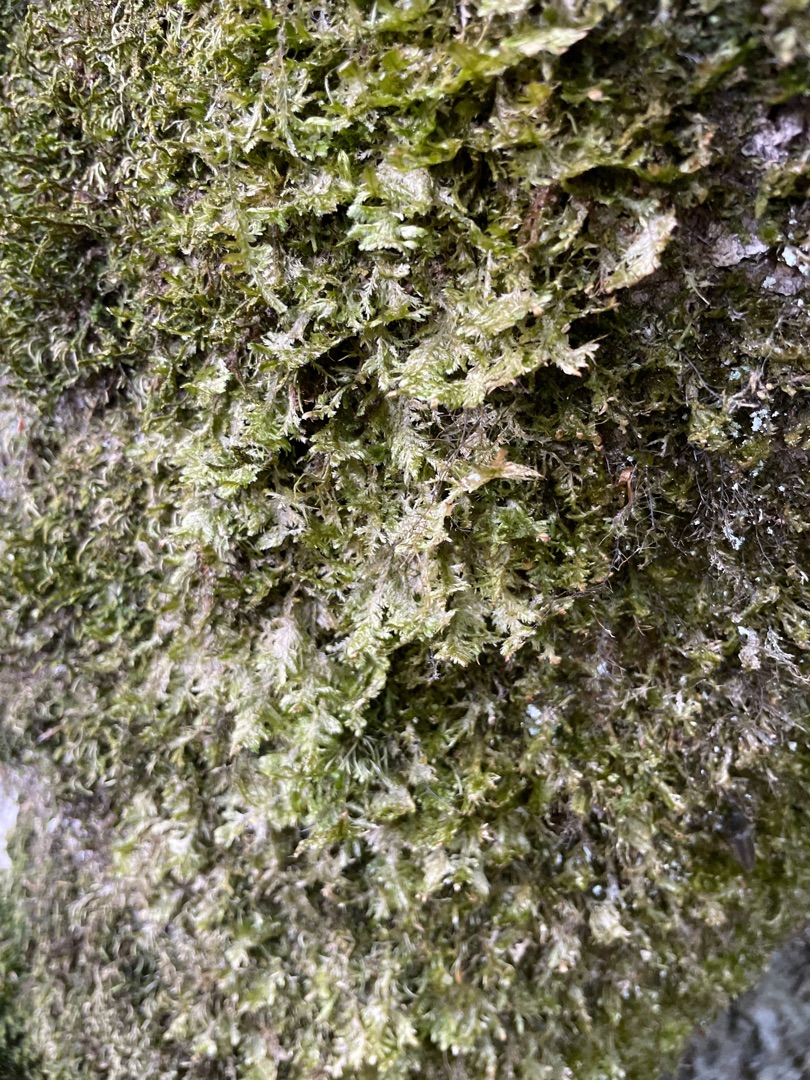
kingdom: Plantae
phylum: Bryophyta
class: Bryopsida
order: Hypnales
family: Neckeraceae
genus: Alleniella
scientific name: Alleniella complanata
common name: Almindelig fladmos
